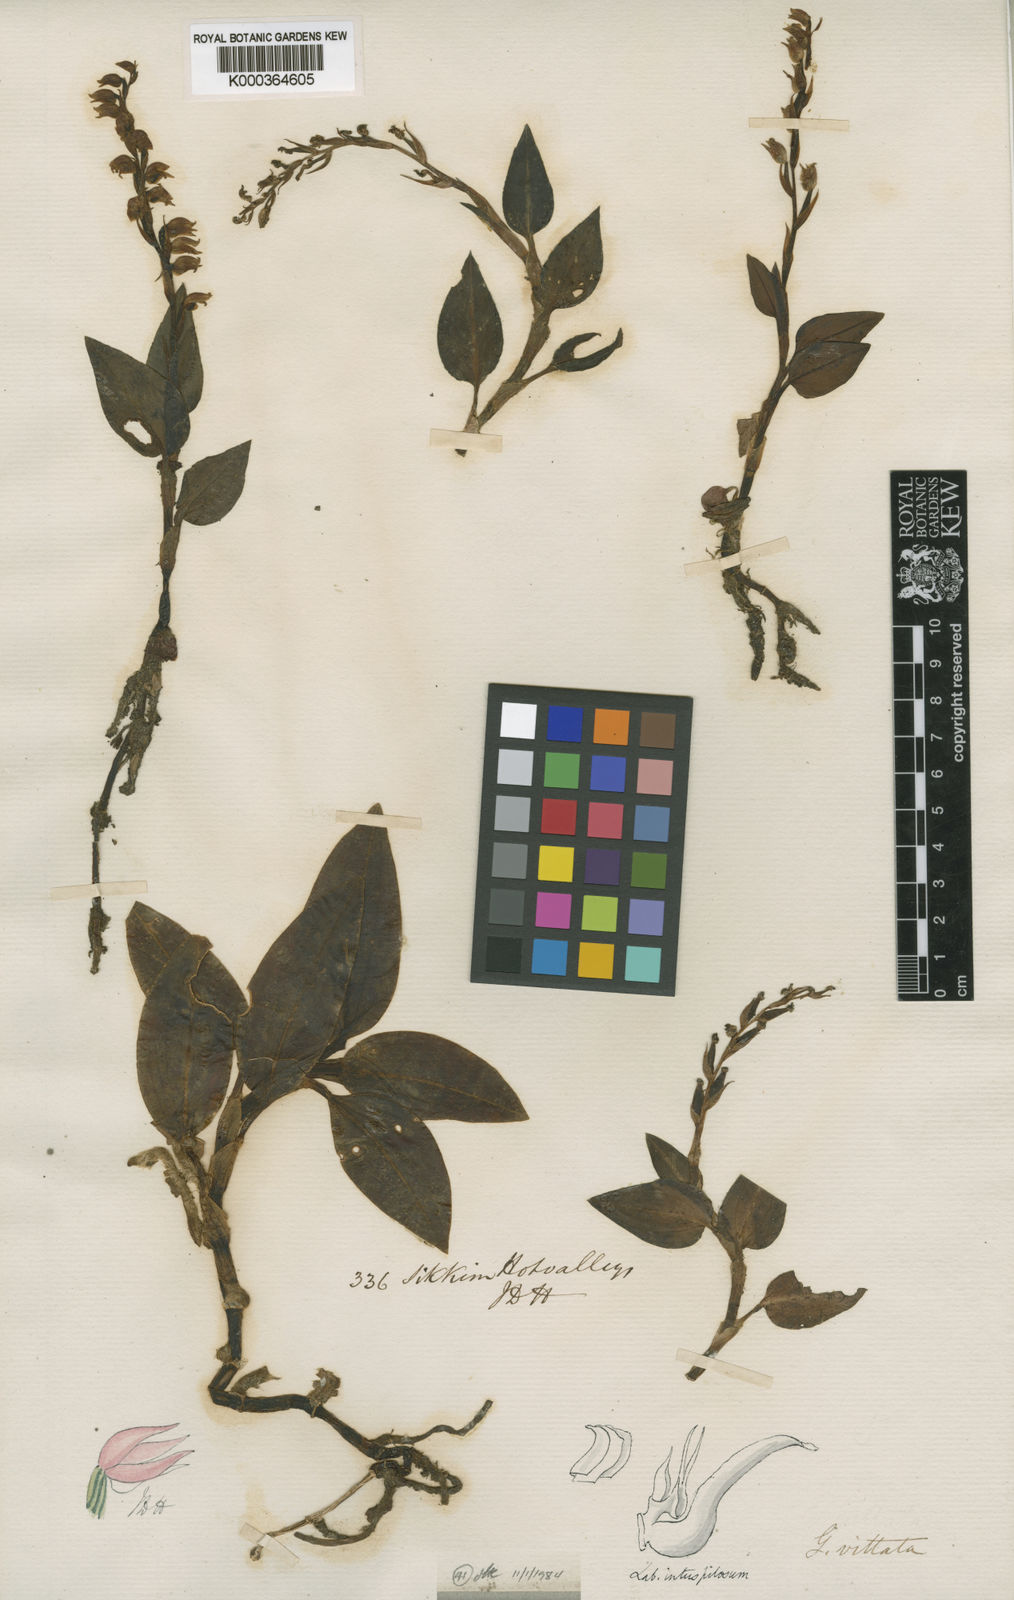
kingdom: Plantae
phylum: Tracheophyta
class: Liliopsida
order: Asparagales
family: Orchidaceae
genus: Goodyera
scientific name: Goodyera vittata
